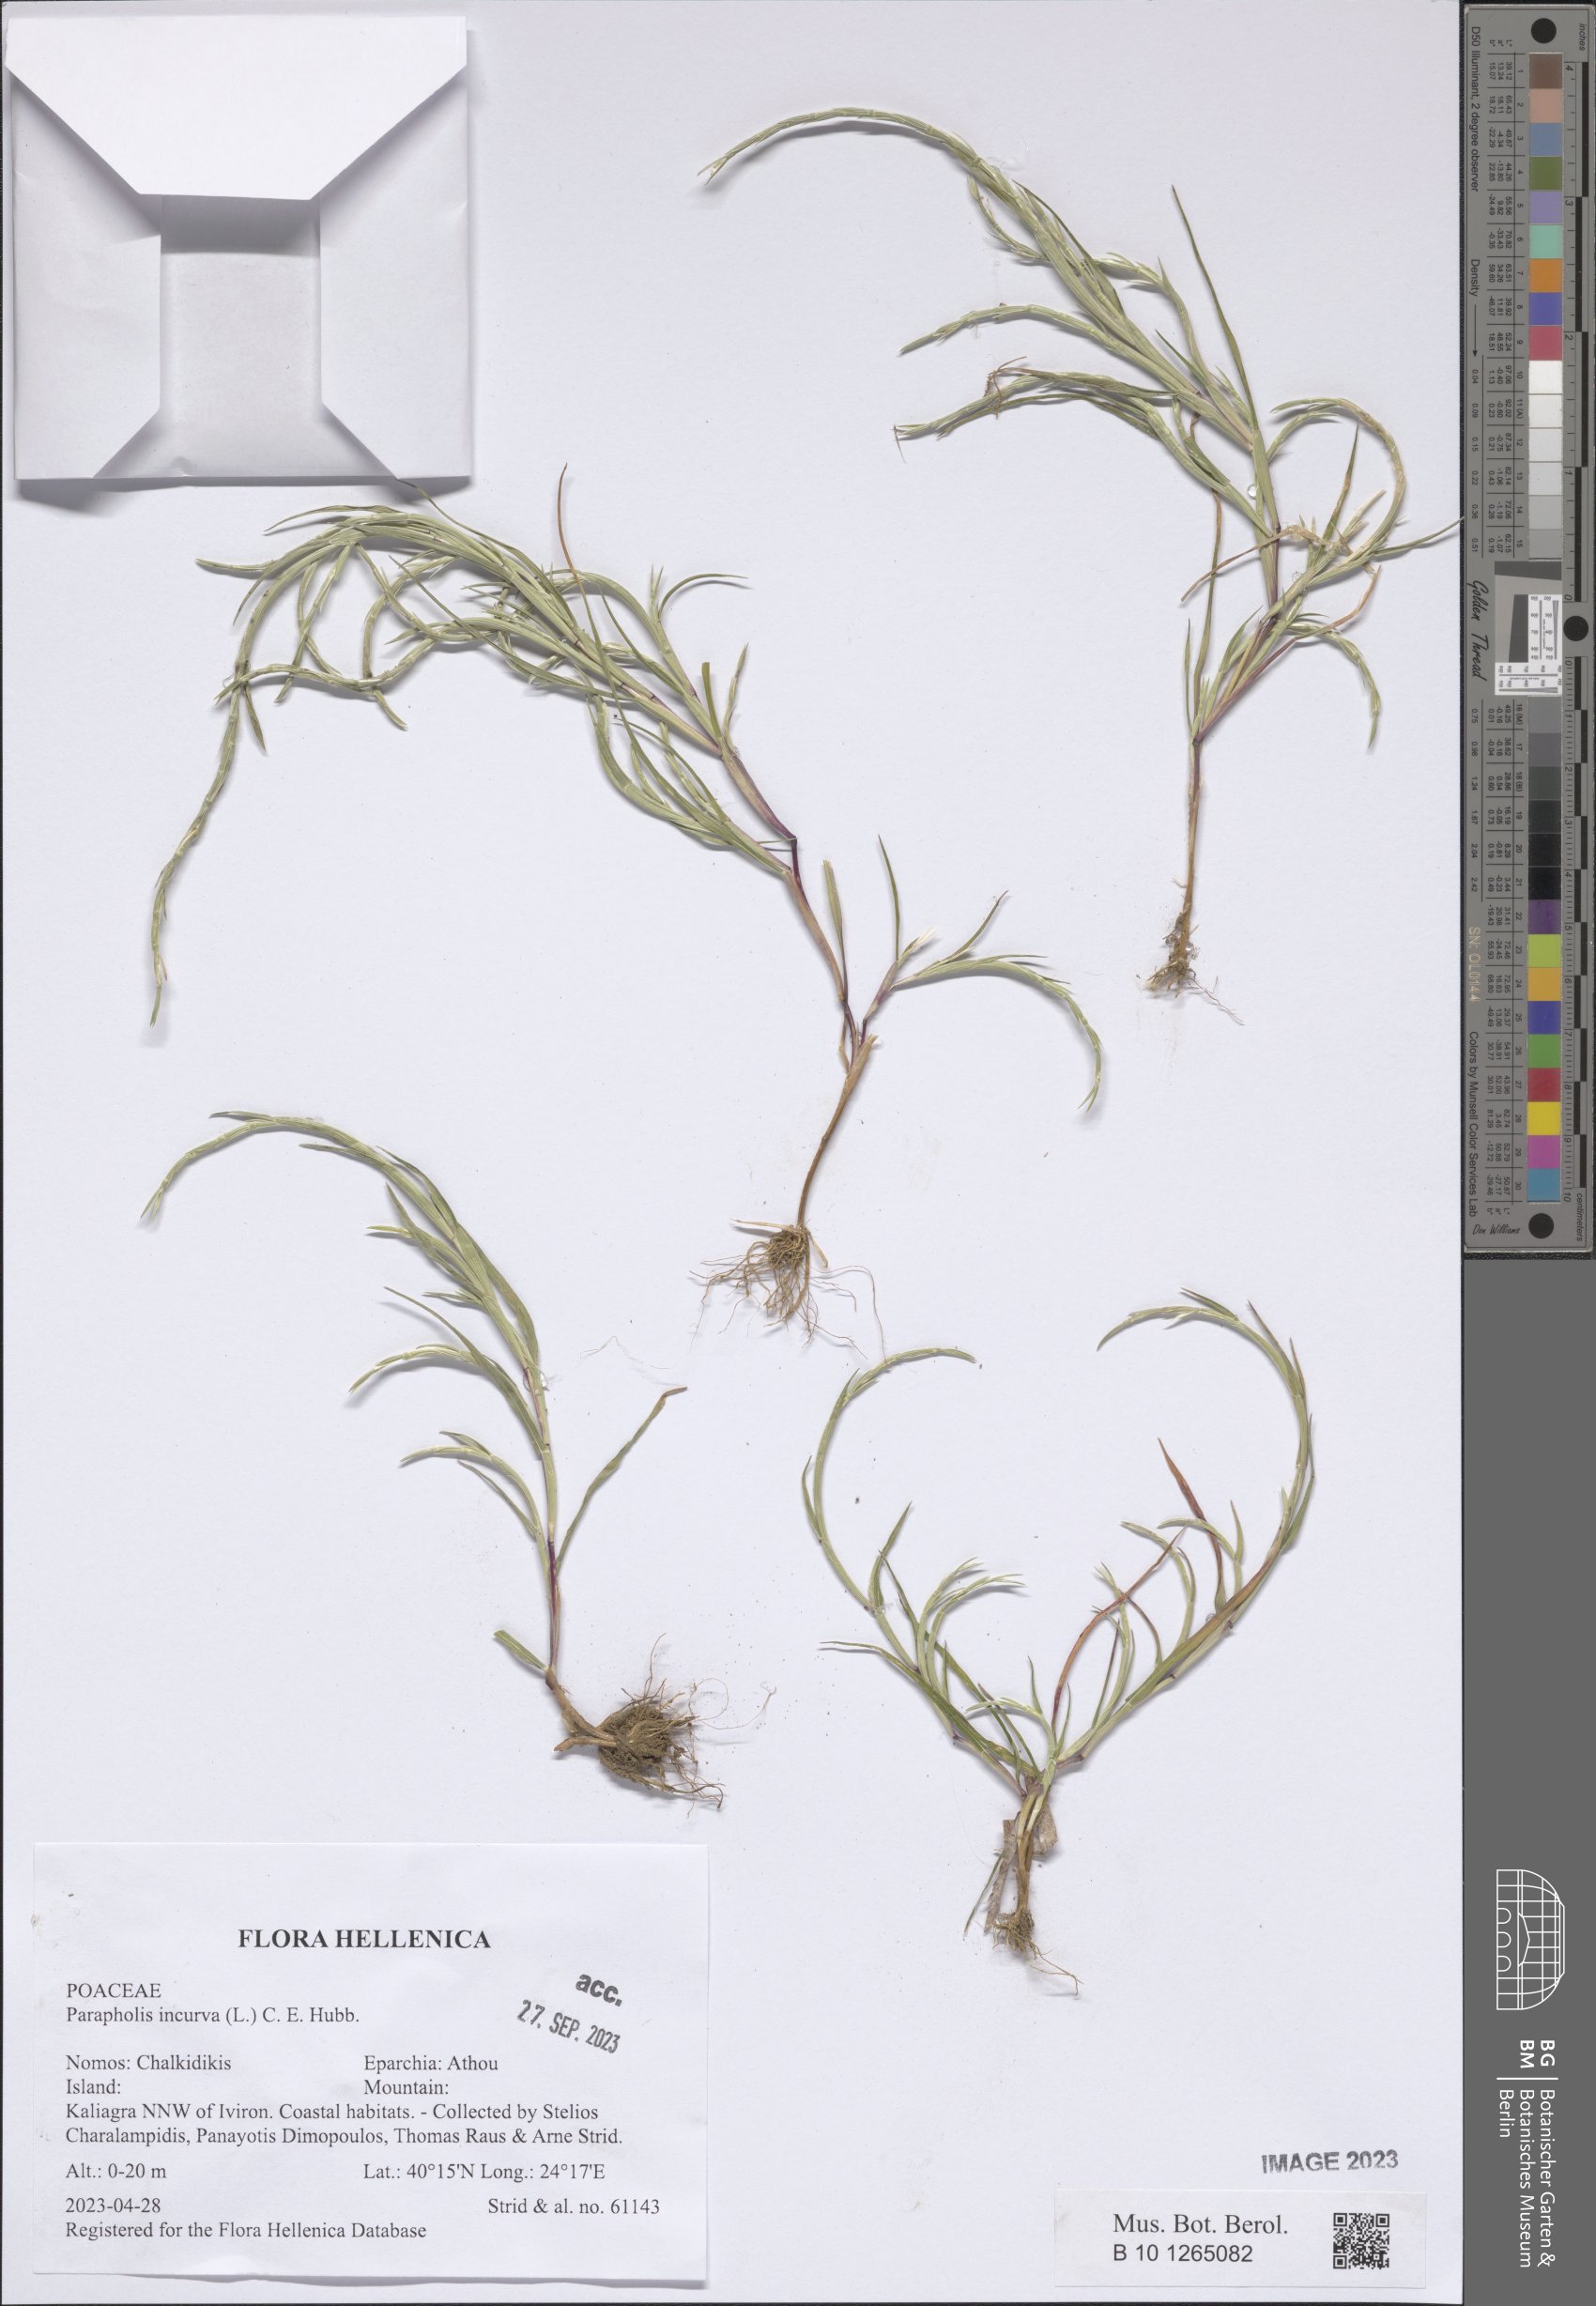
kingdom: Plantae
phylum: Tracheophyta
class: Liliopsida
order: Poales
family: Poaceae
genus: Parapholis
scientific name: Parapholis incurva
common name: Curved sicklegrass
